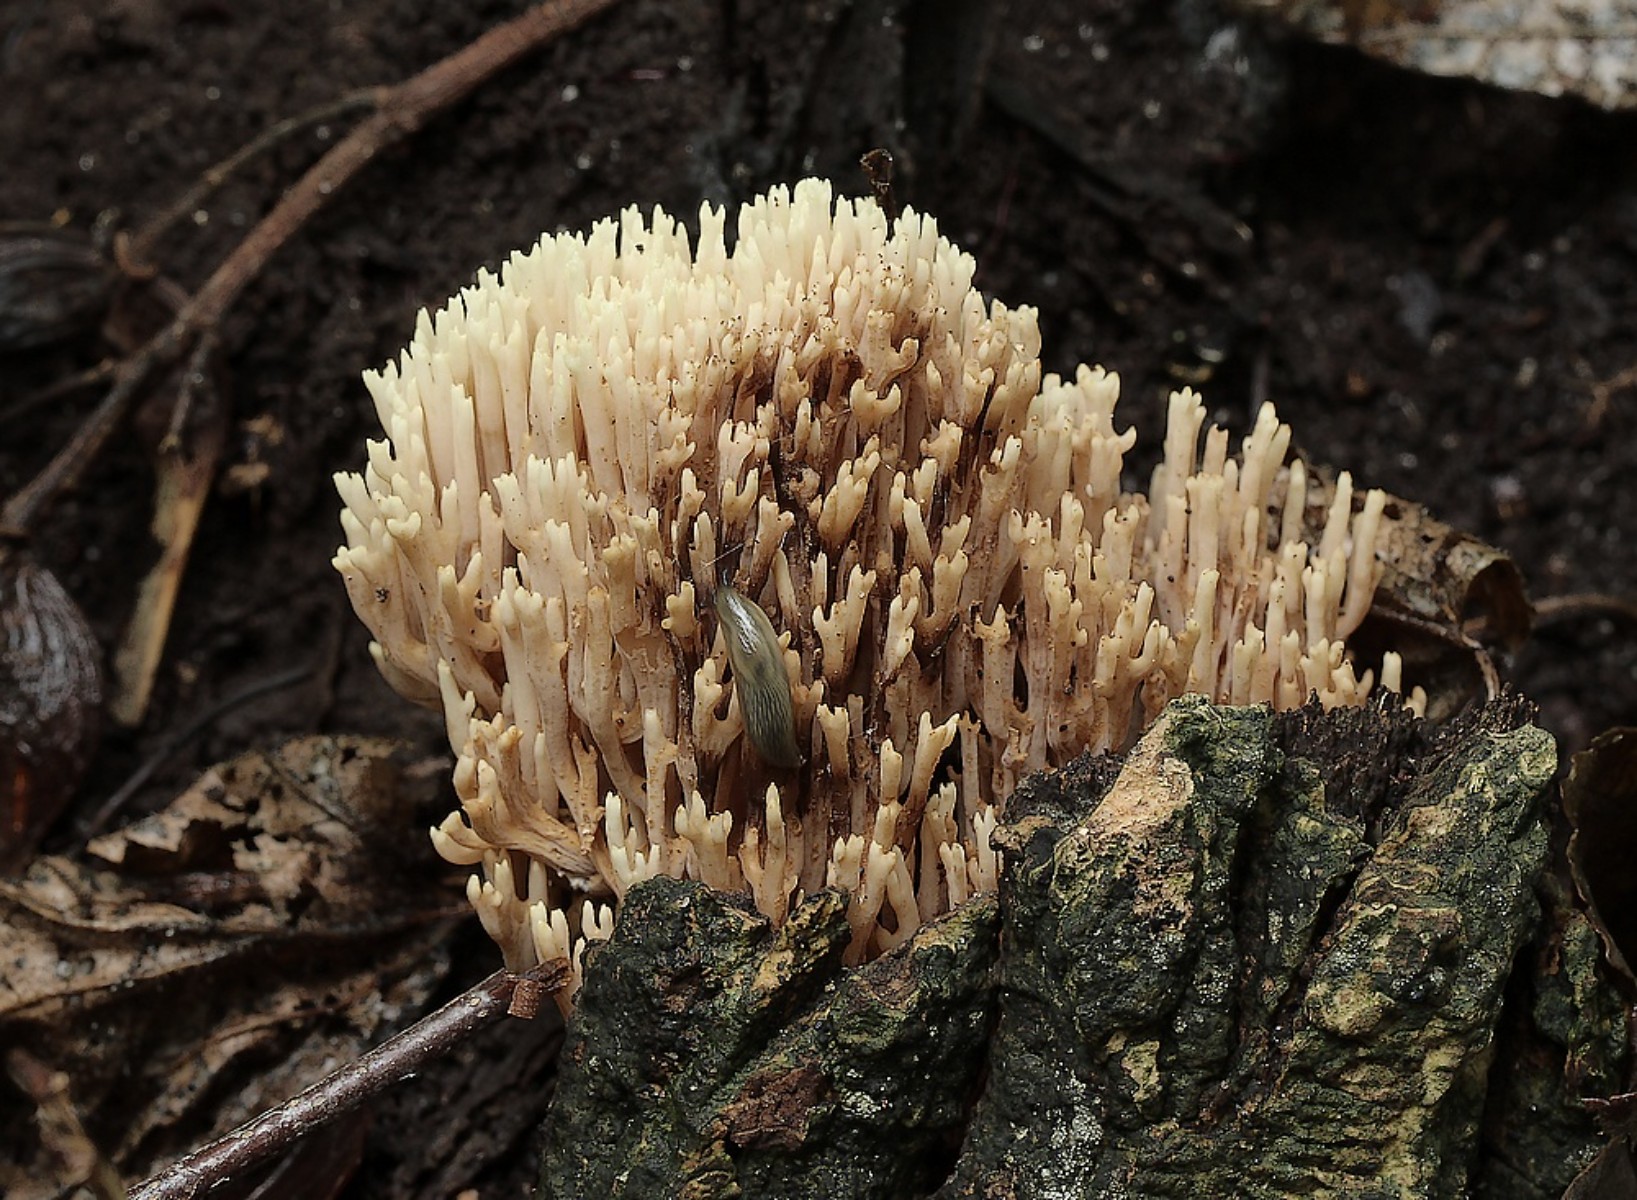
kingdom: Fungi
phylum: Basidiomycota
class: Agaricomycetes
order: Gomphales
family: Gomphaceae
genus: Ramaria
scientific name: Ramaria stricta
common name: rank koralsvamp
